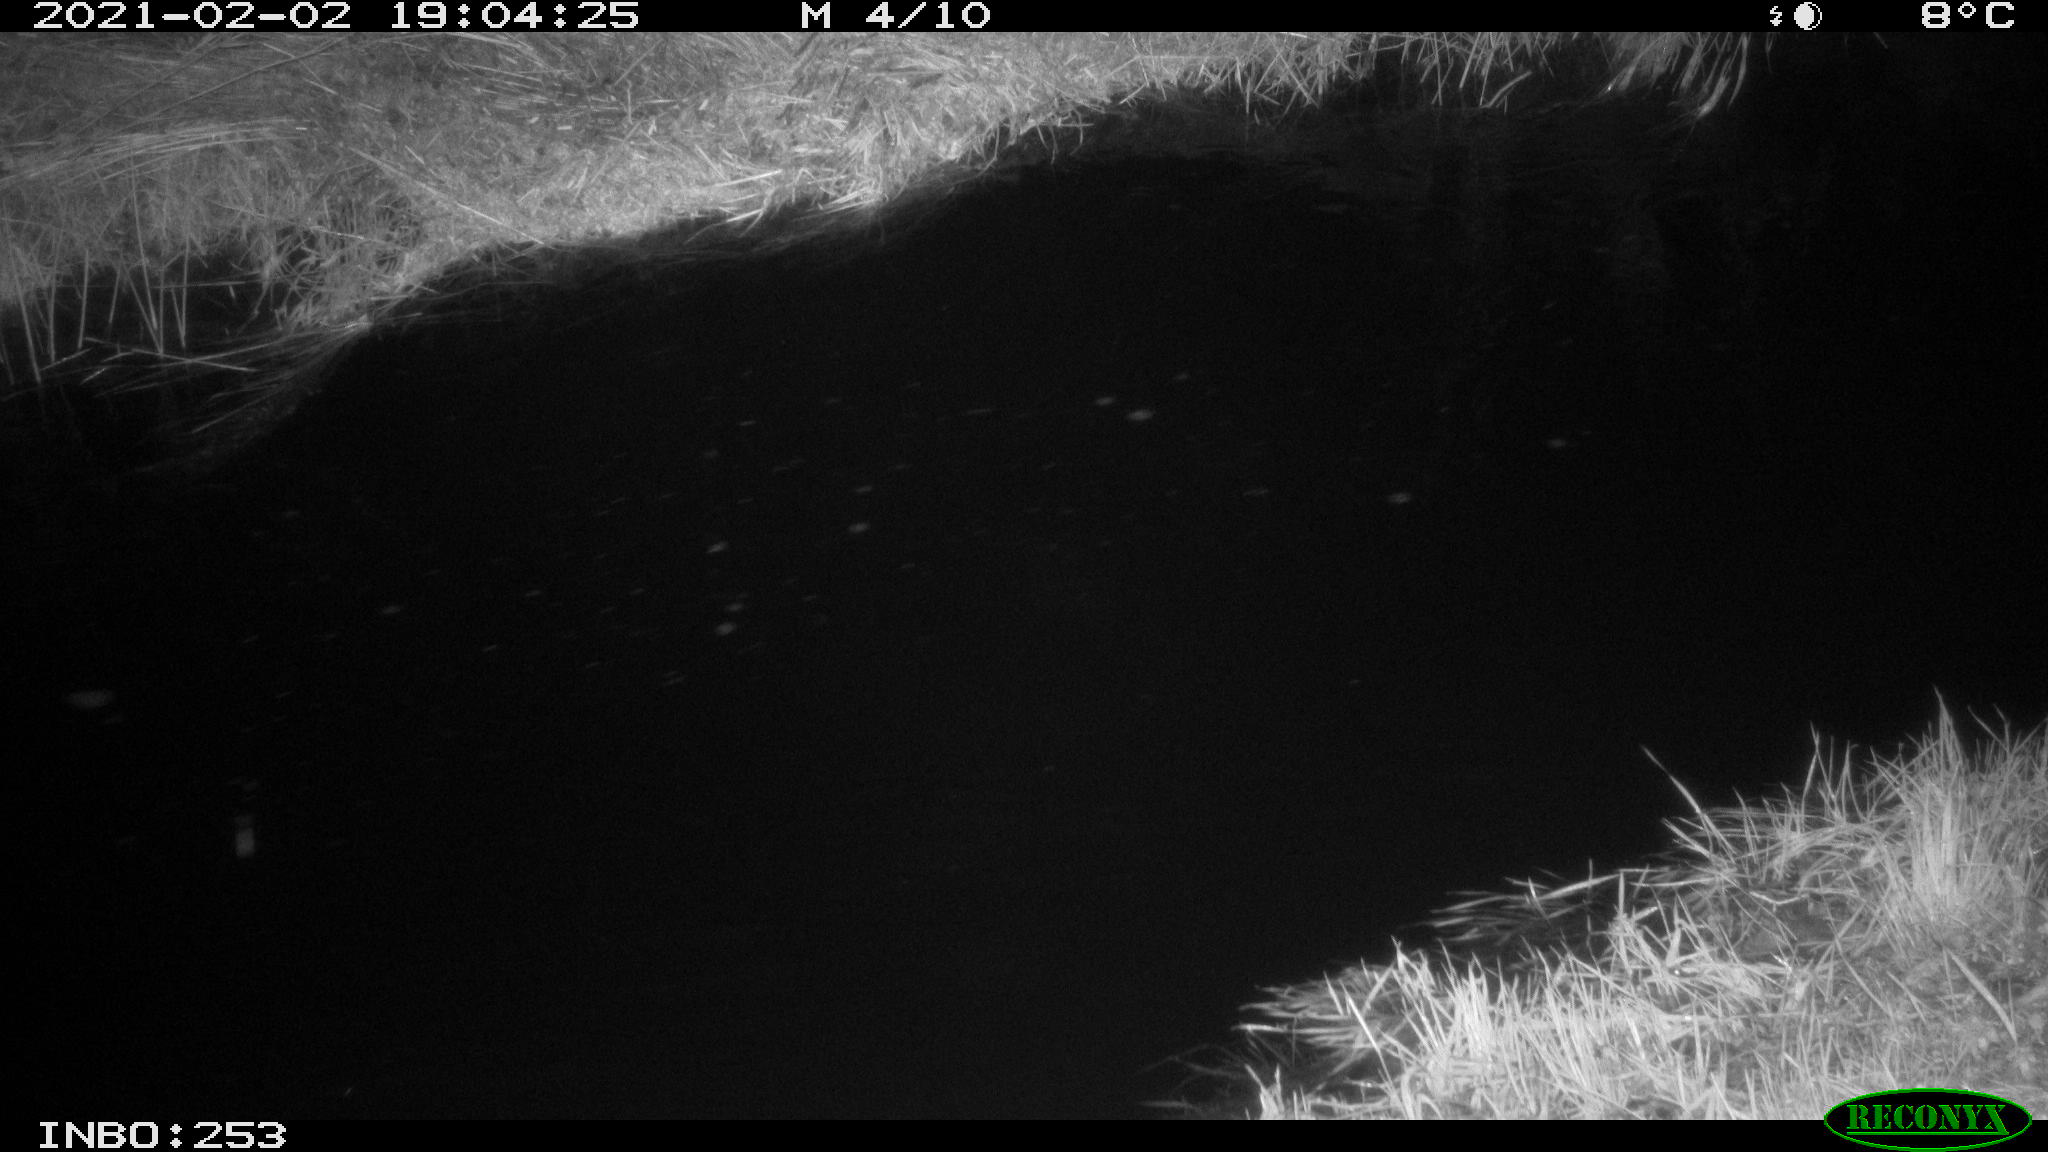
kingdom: Animalia
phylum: Chordata
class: Mammalia
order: Rodentia
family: Muridae
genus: Rattus
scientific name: Rattus norvegicus
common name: Brown rat
